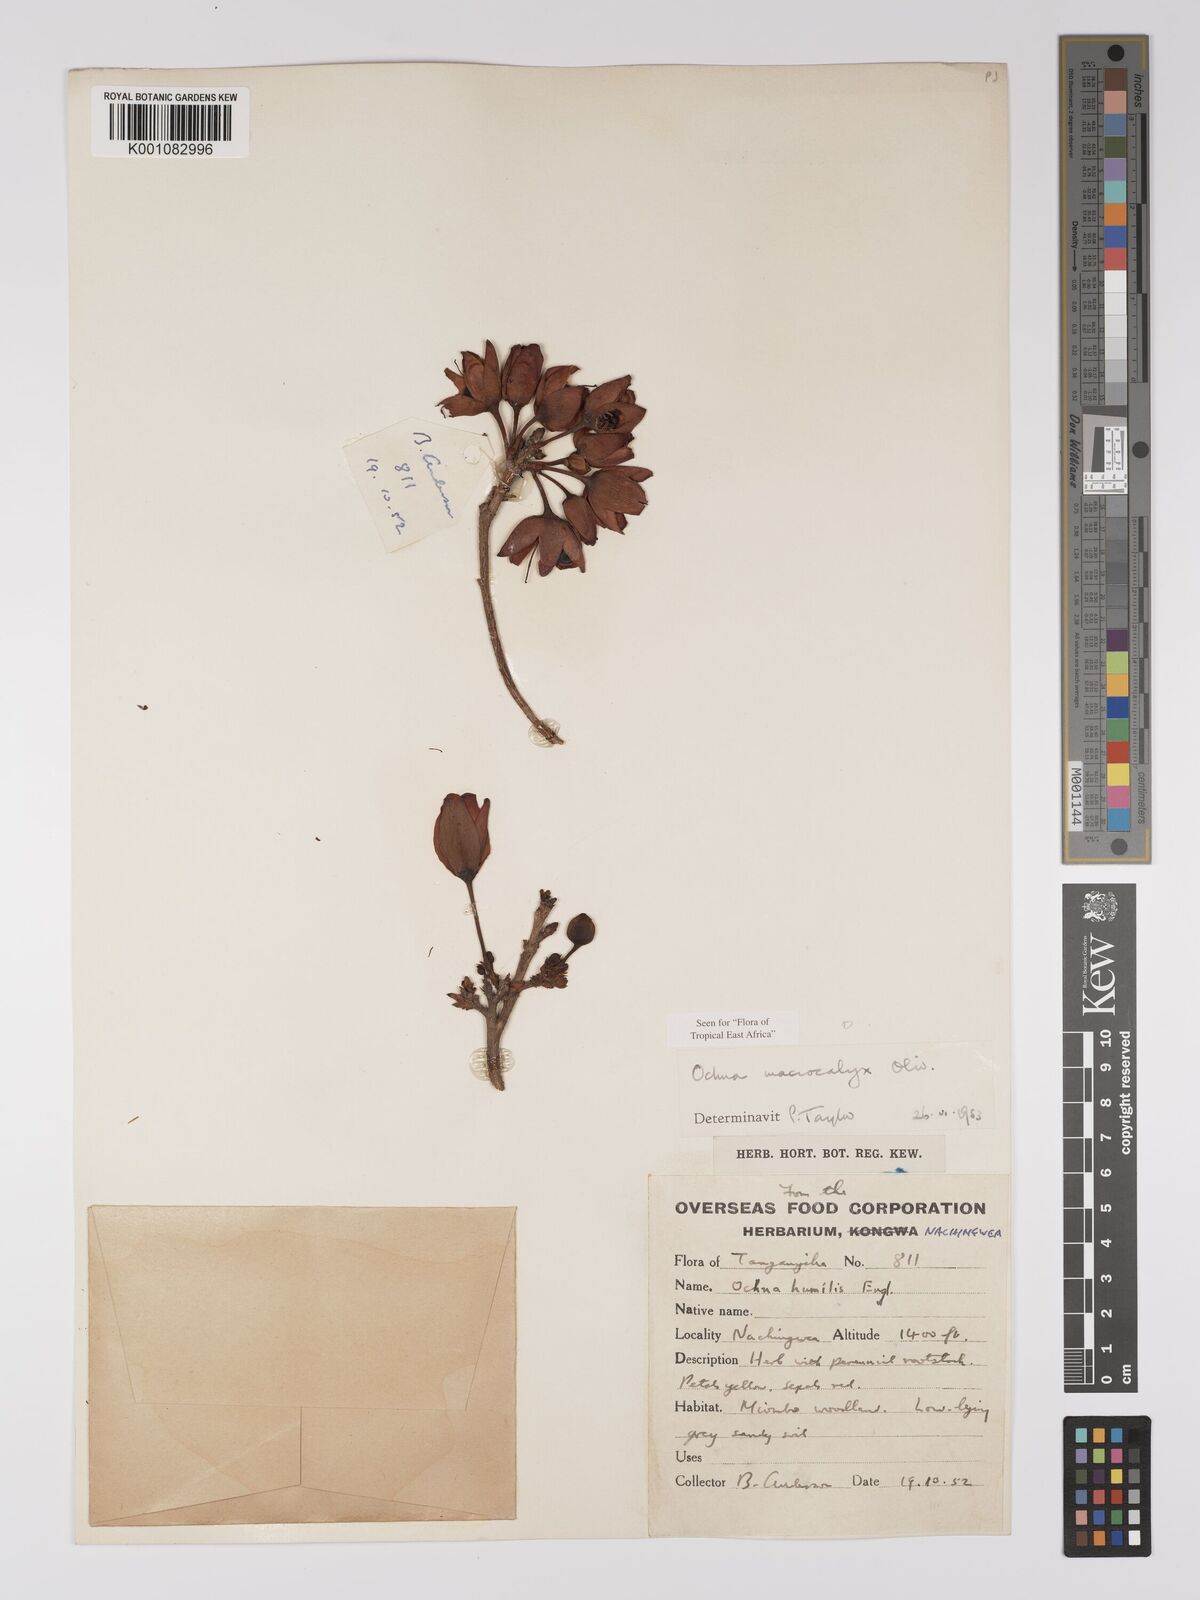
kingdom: Plantae
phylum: Tracheophyta
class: Magnoliopsida
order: Malpighiales
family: Ochnaceae
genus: Ochna
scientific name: Ochna macrocalyx
